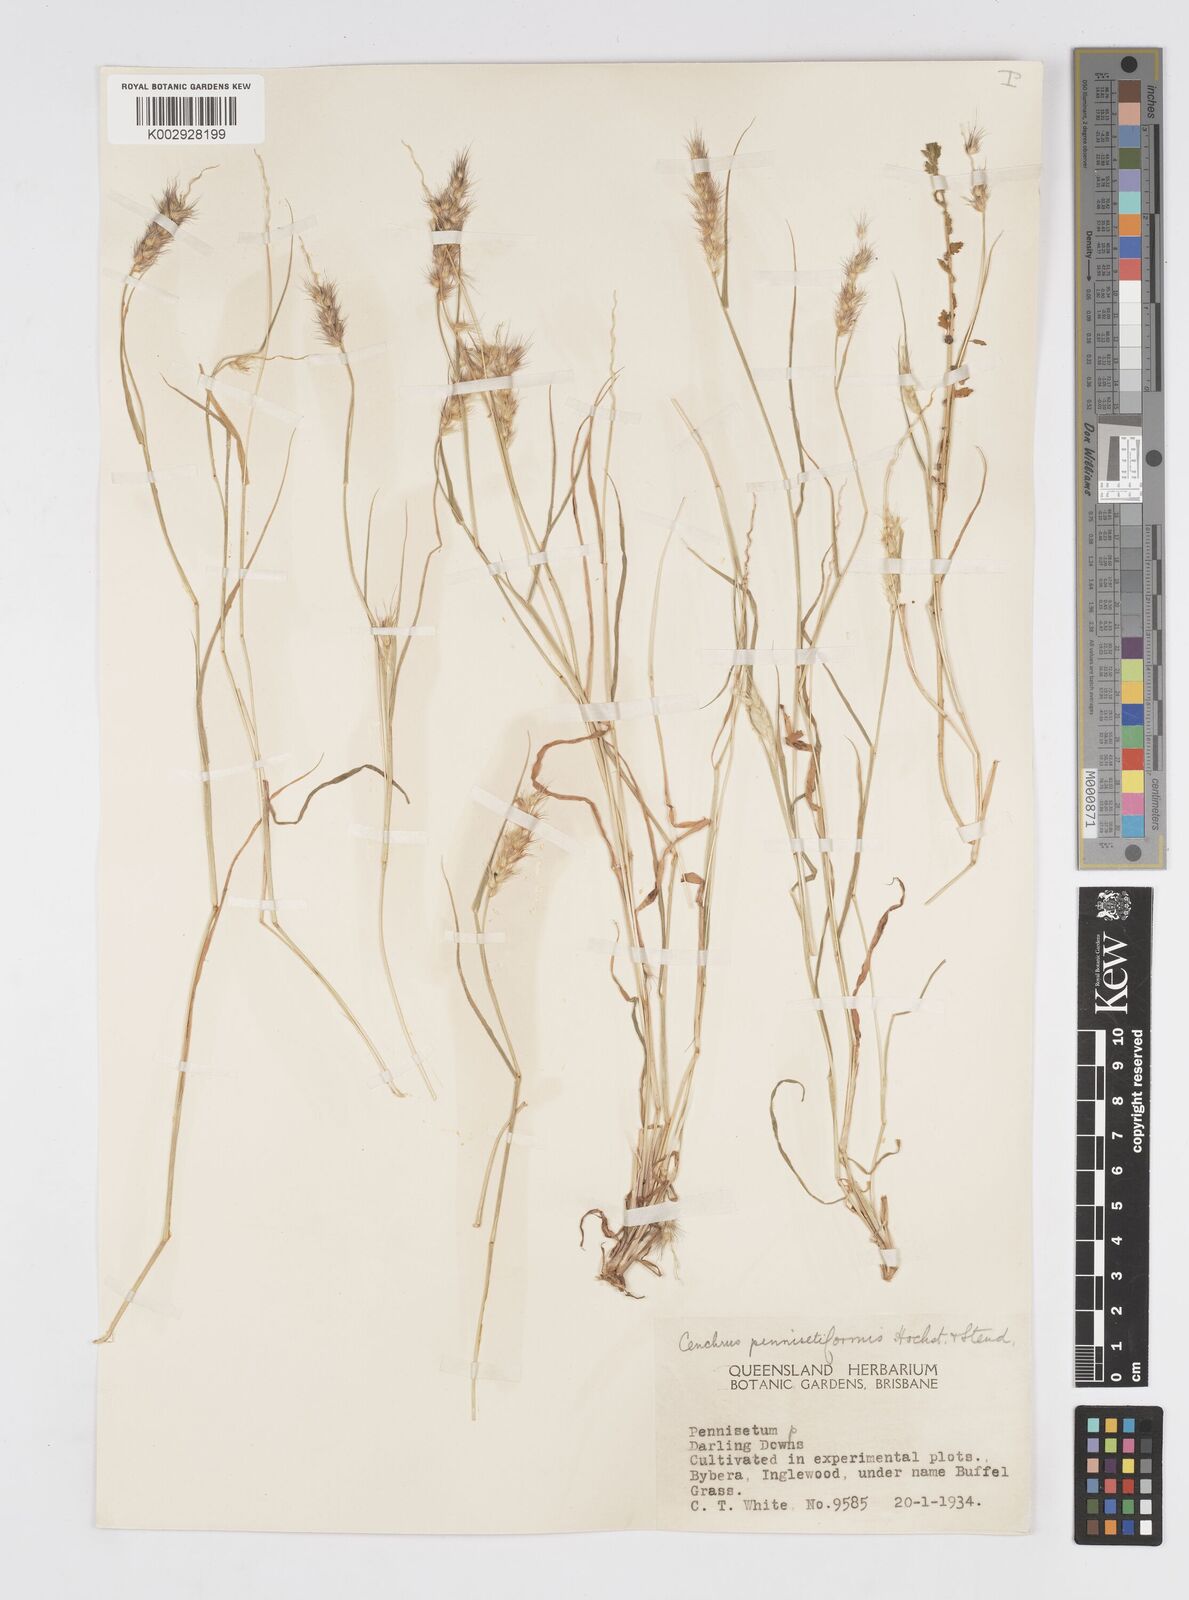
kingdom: Plantae
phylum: Tracheophyta
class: Liliopsida
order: Poales
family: Poaceae
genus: Cenchrus
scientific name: Cenchrus pennisetiformis
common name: Cloncurry
